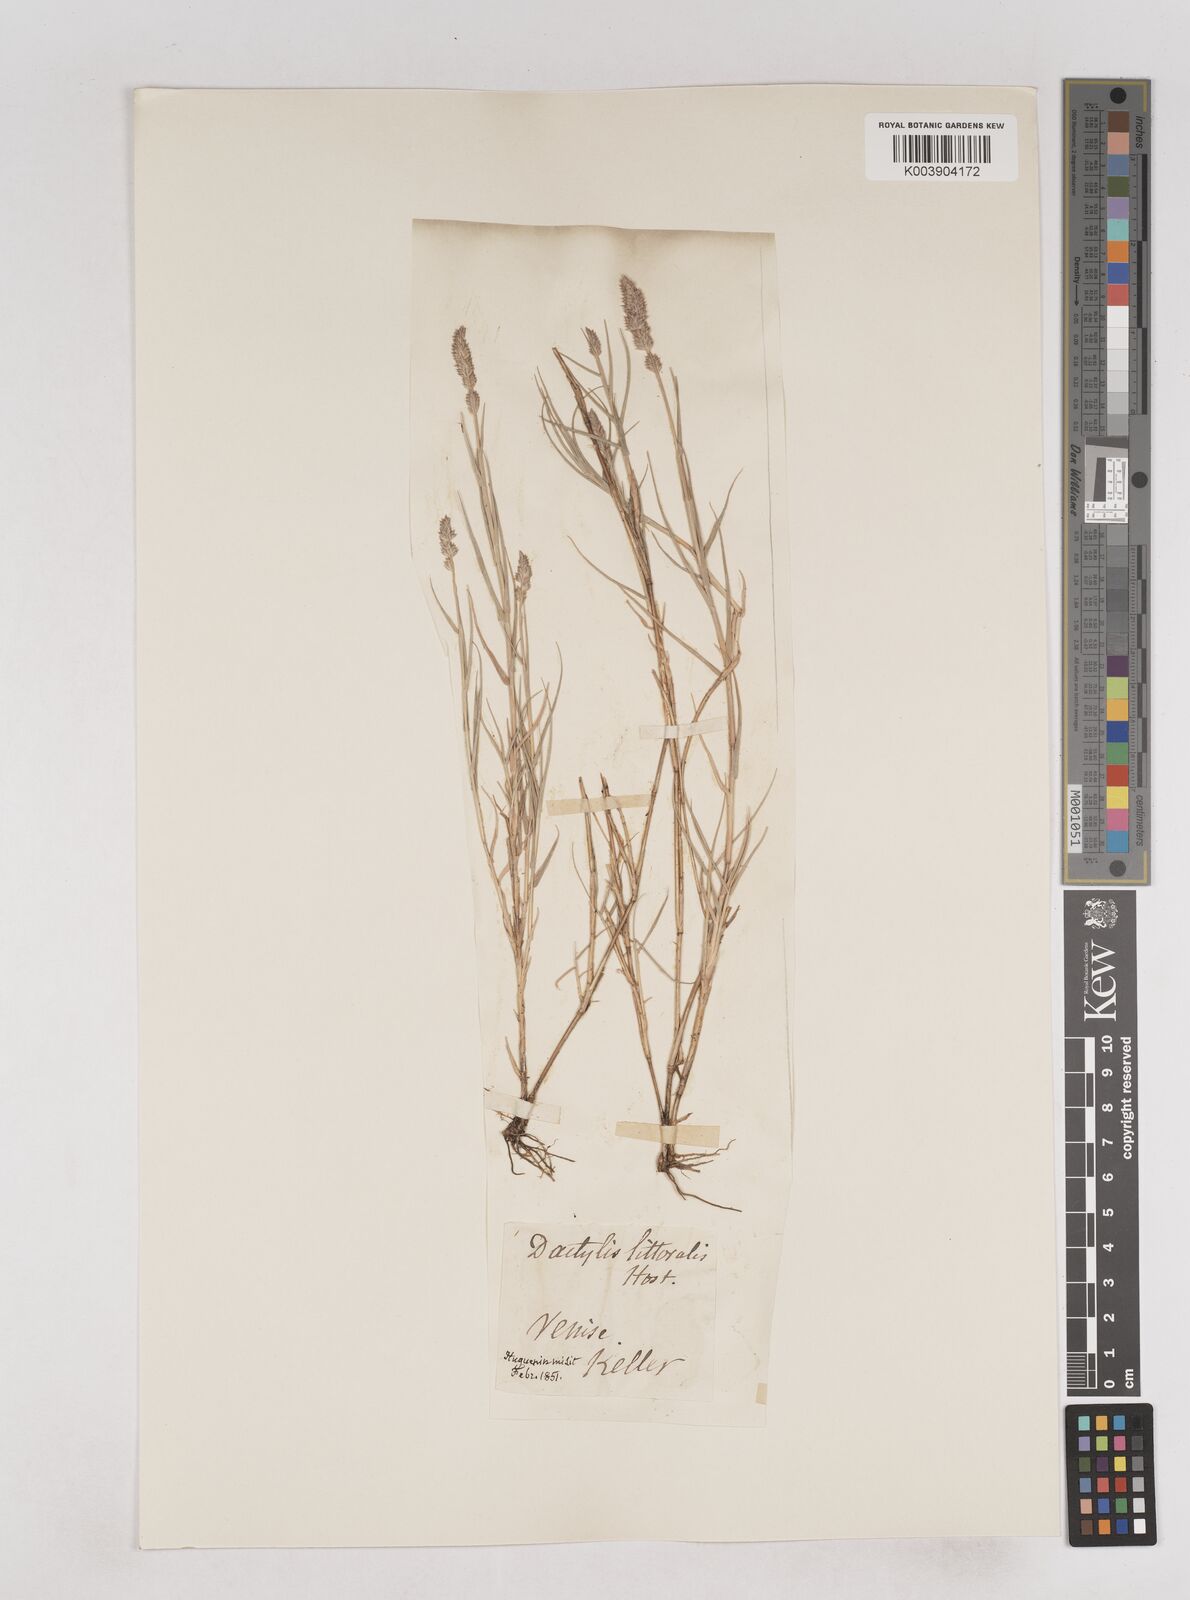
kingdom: Plantae
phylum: Tracheophyta
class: Liliopsida
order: Poales
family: Poaceae
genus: Aeluropus
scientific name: Aeluropus littoralis
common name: Indian walnut
